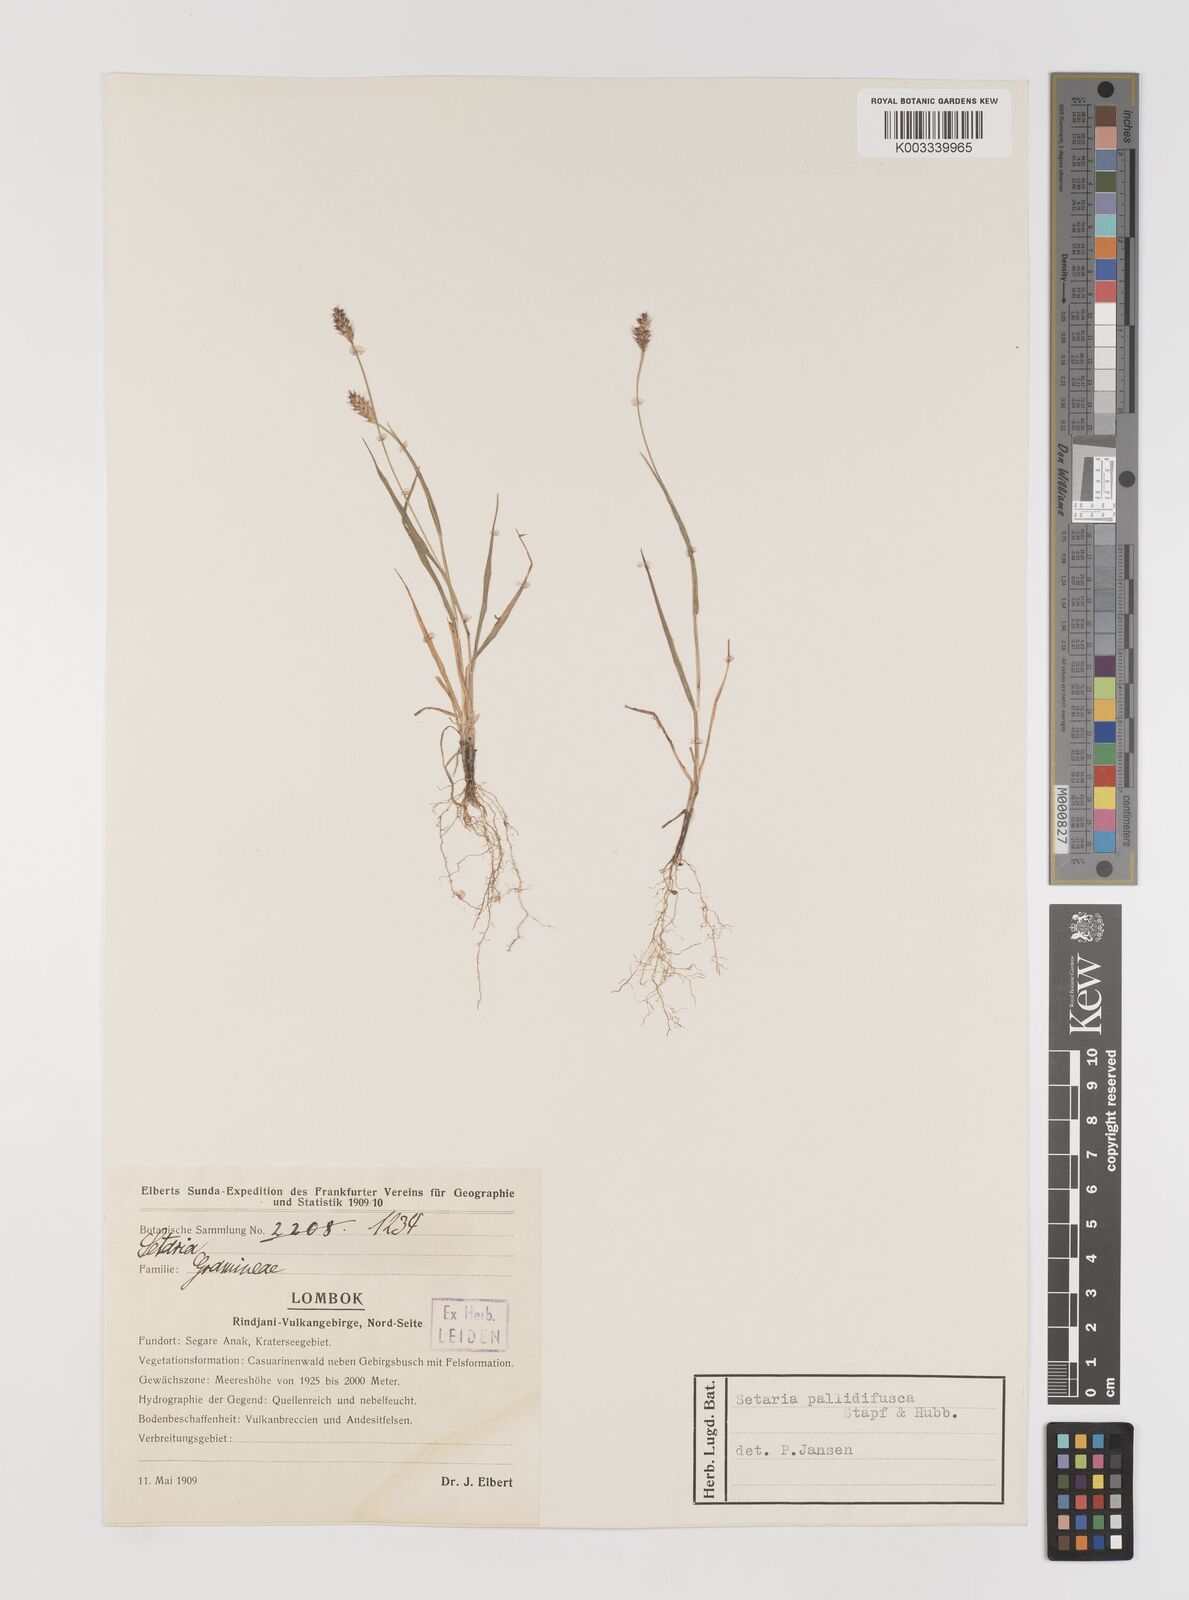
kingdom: Plantae
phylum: Tracheophyta
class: Liliopsida
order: Poales
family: Poaceae
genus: Setaria
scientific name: Setaria parviflora
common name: Knotroot bristle-grass
